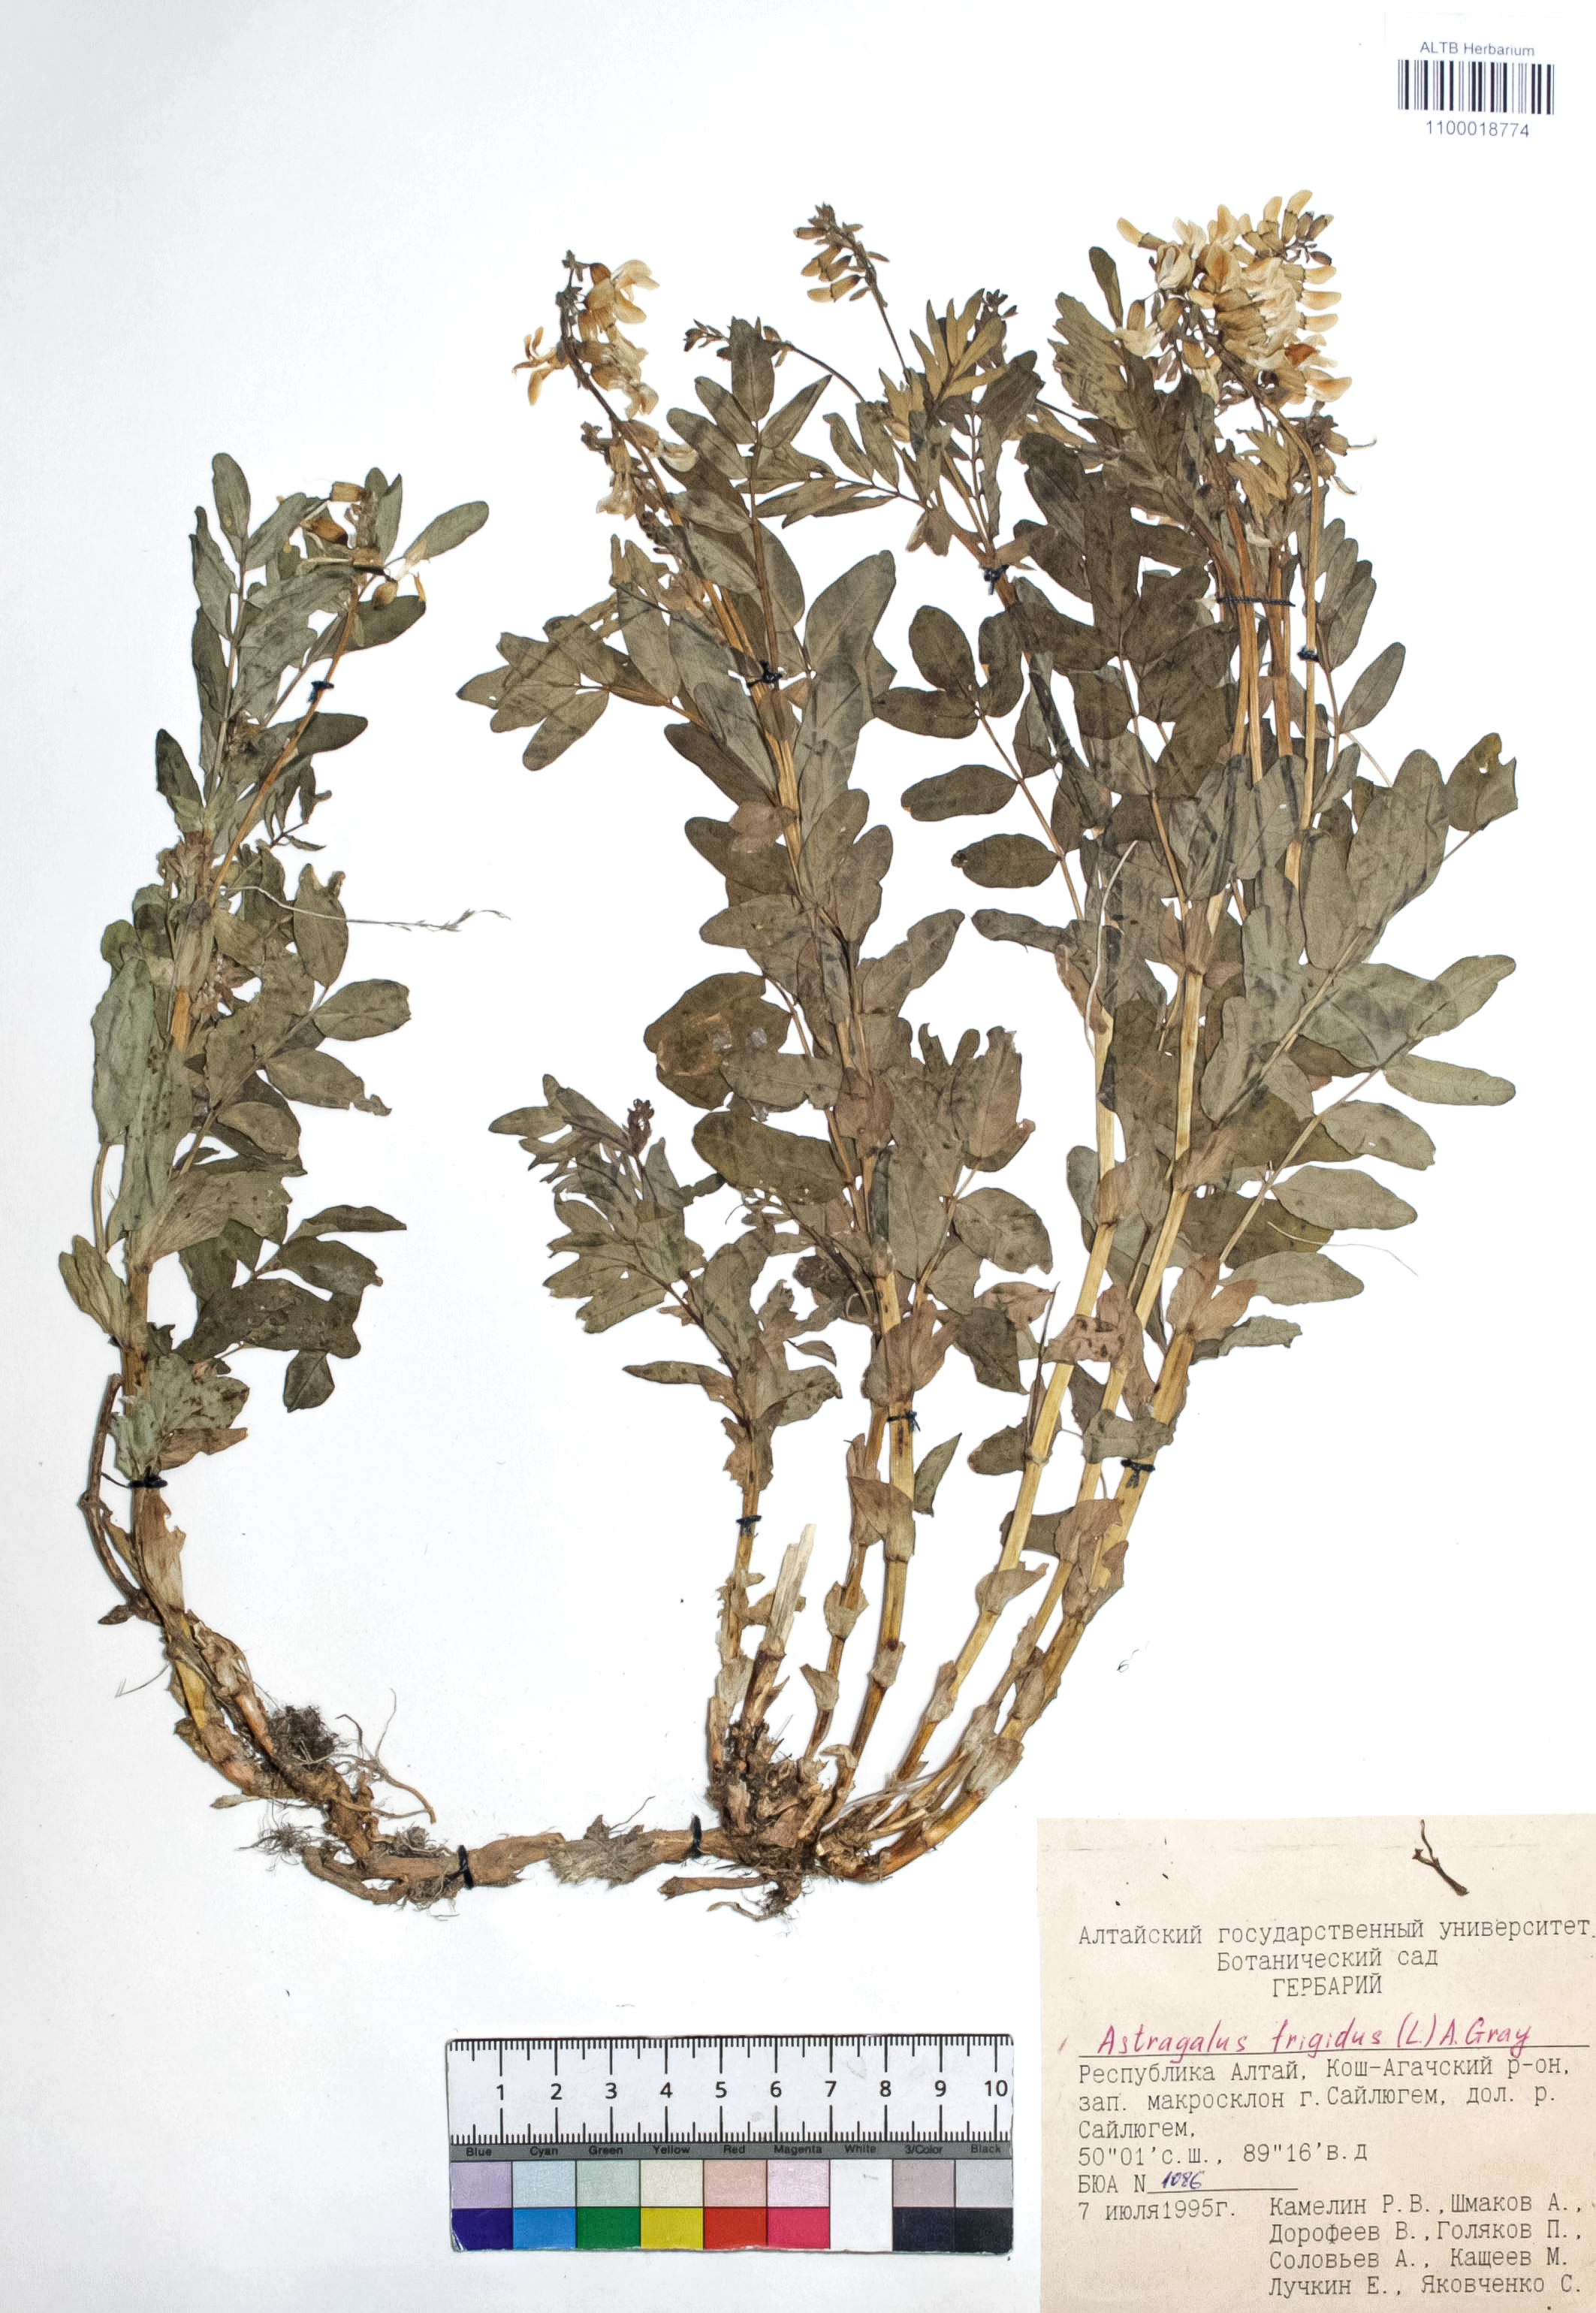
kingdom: Plantae
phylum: Tracheophyta
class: Magnoliopsida
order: Fabales
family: Fabaceae
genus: Astragalus
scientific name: Astragalus frigidus
